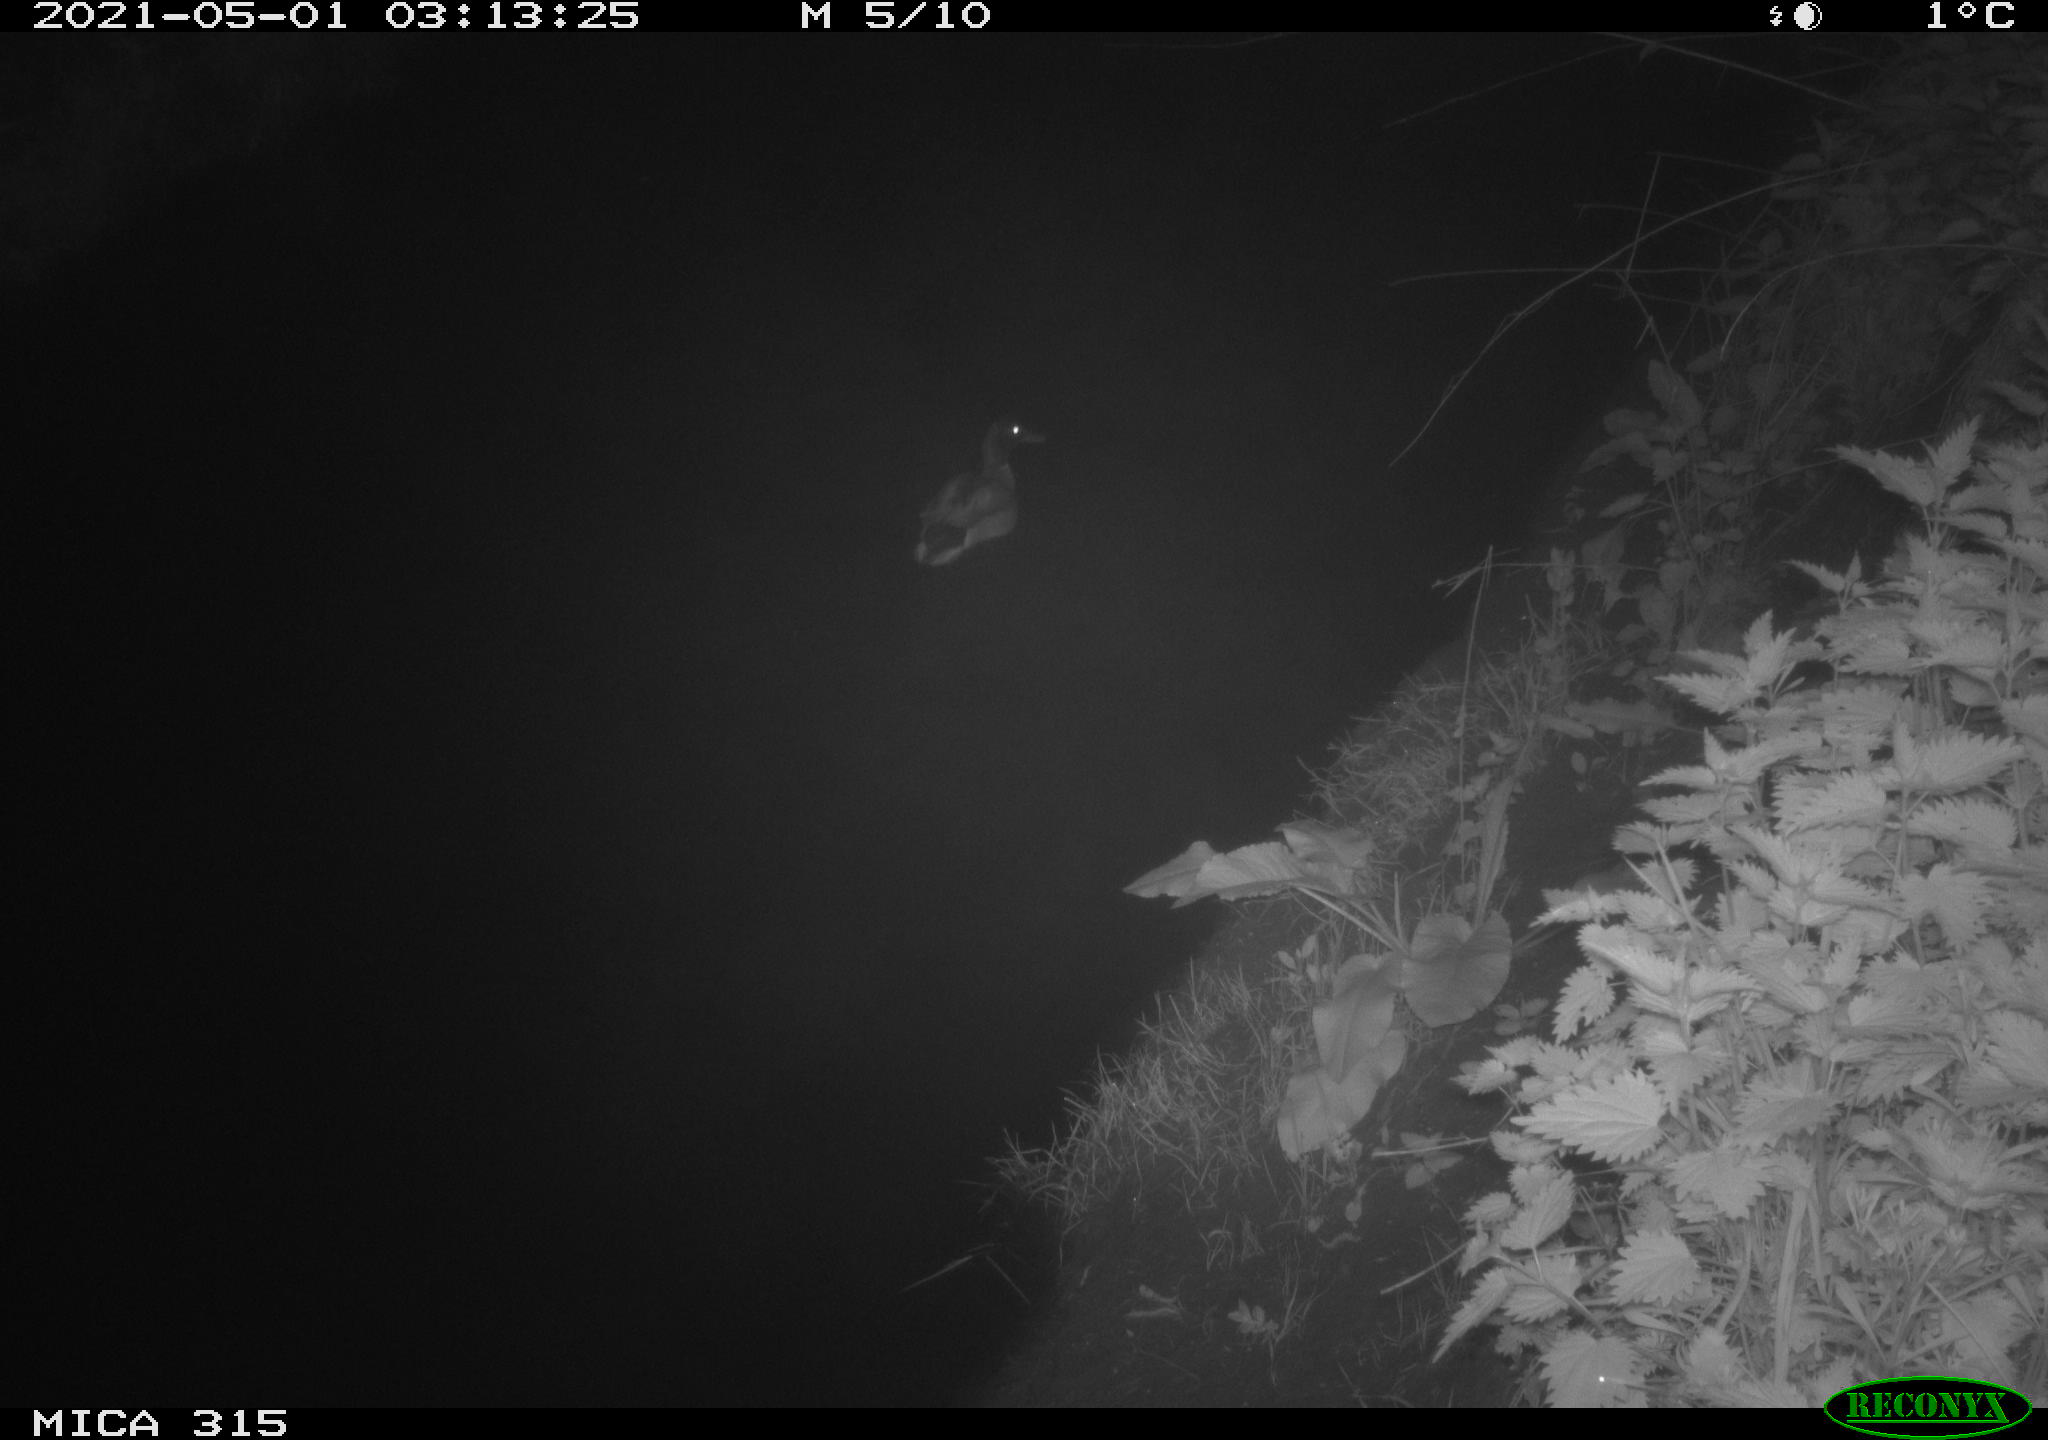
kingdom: Animalia
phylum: Chordata
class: Aves
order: Anseriformes
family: Anatidae
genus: Anas
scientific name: Anas
